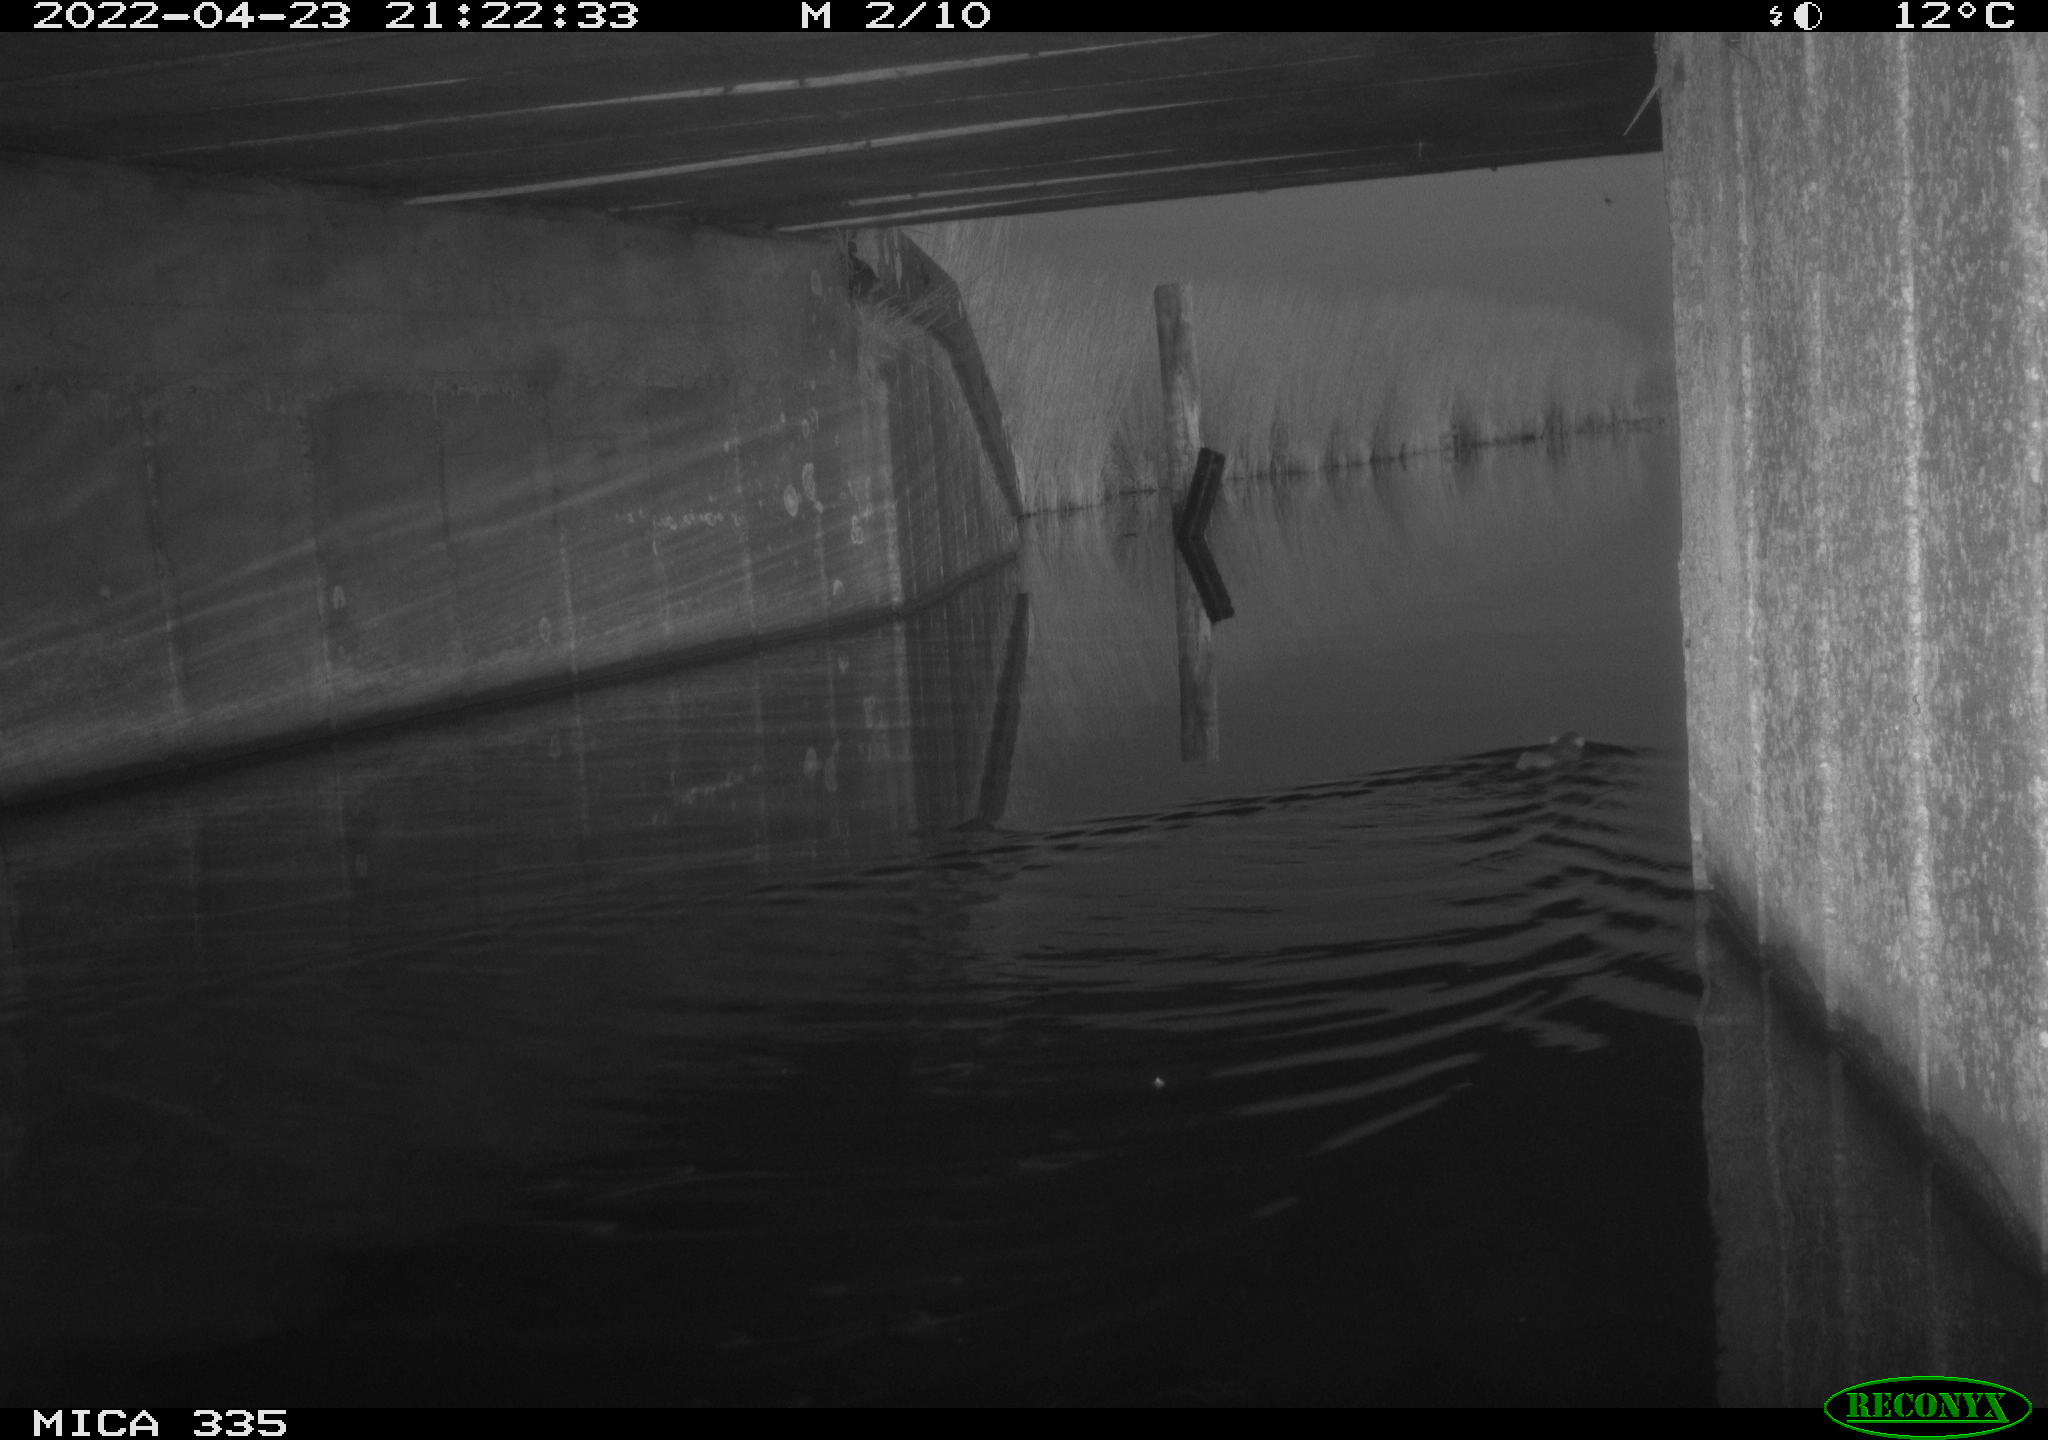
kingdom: Animalia
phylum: Chordata
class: Mammalia
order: Rodentia
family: Muridae
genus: Rattus
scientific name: Rattus norvegicus
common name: Brown rat
